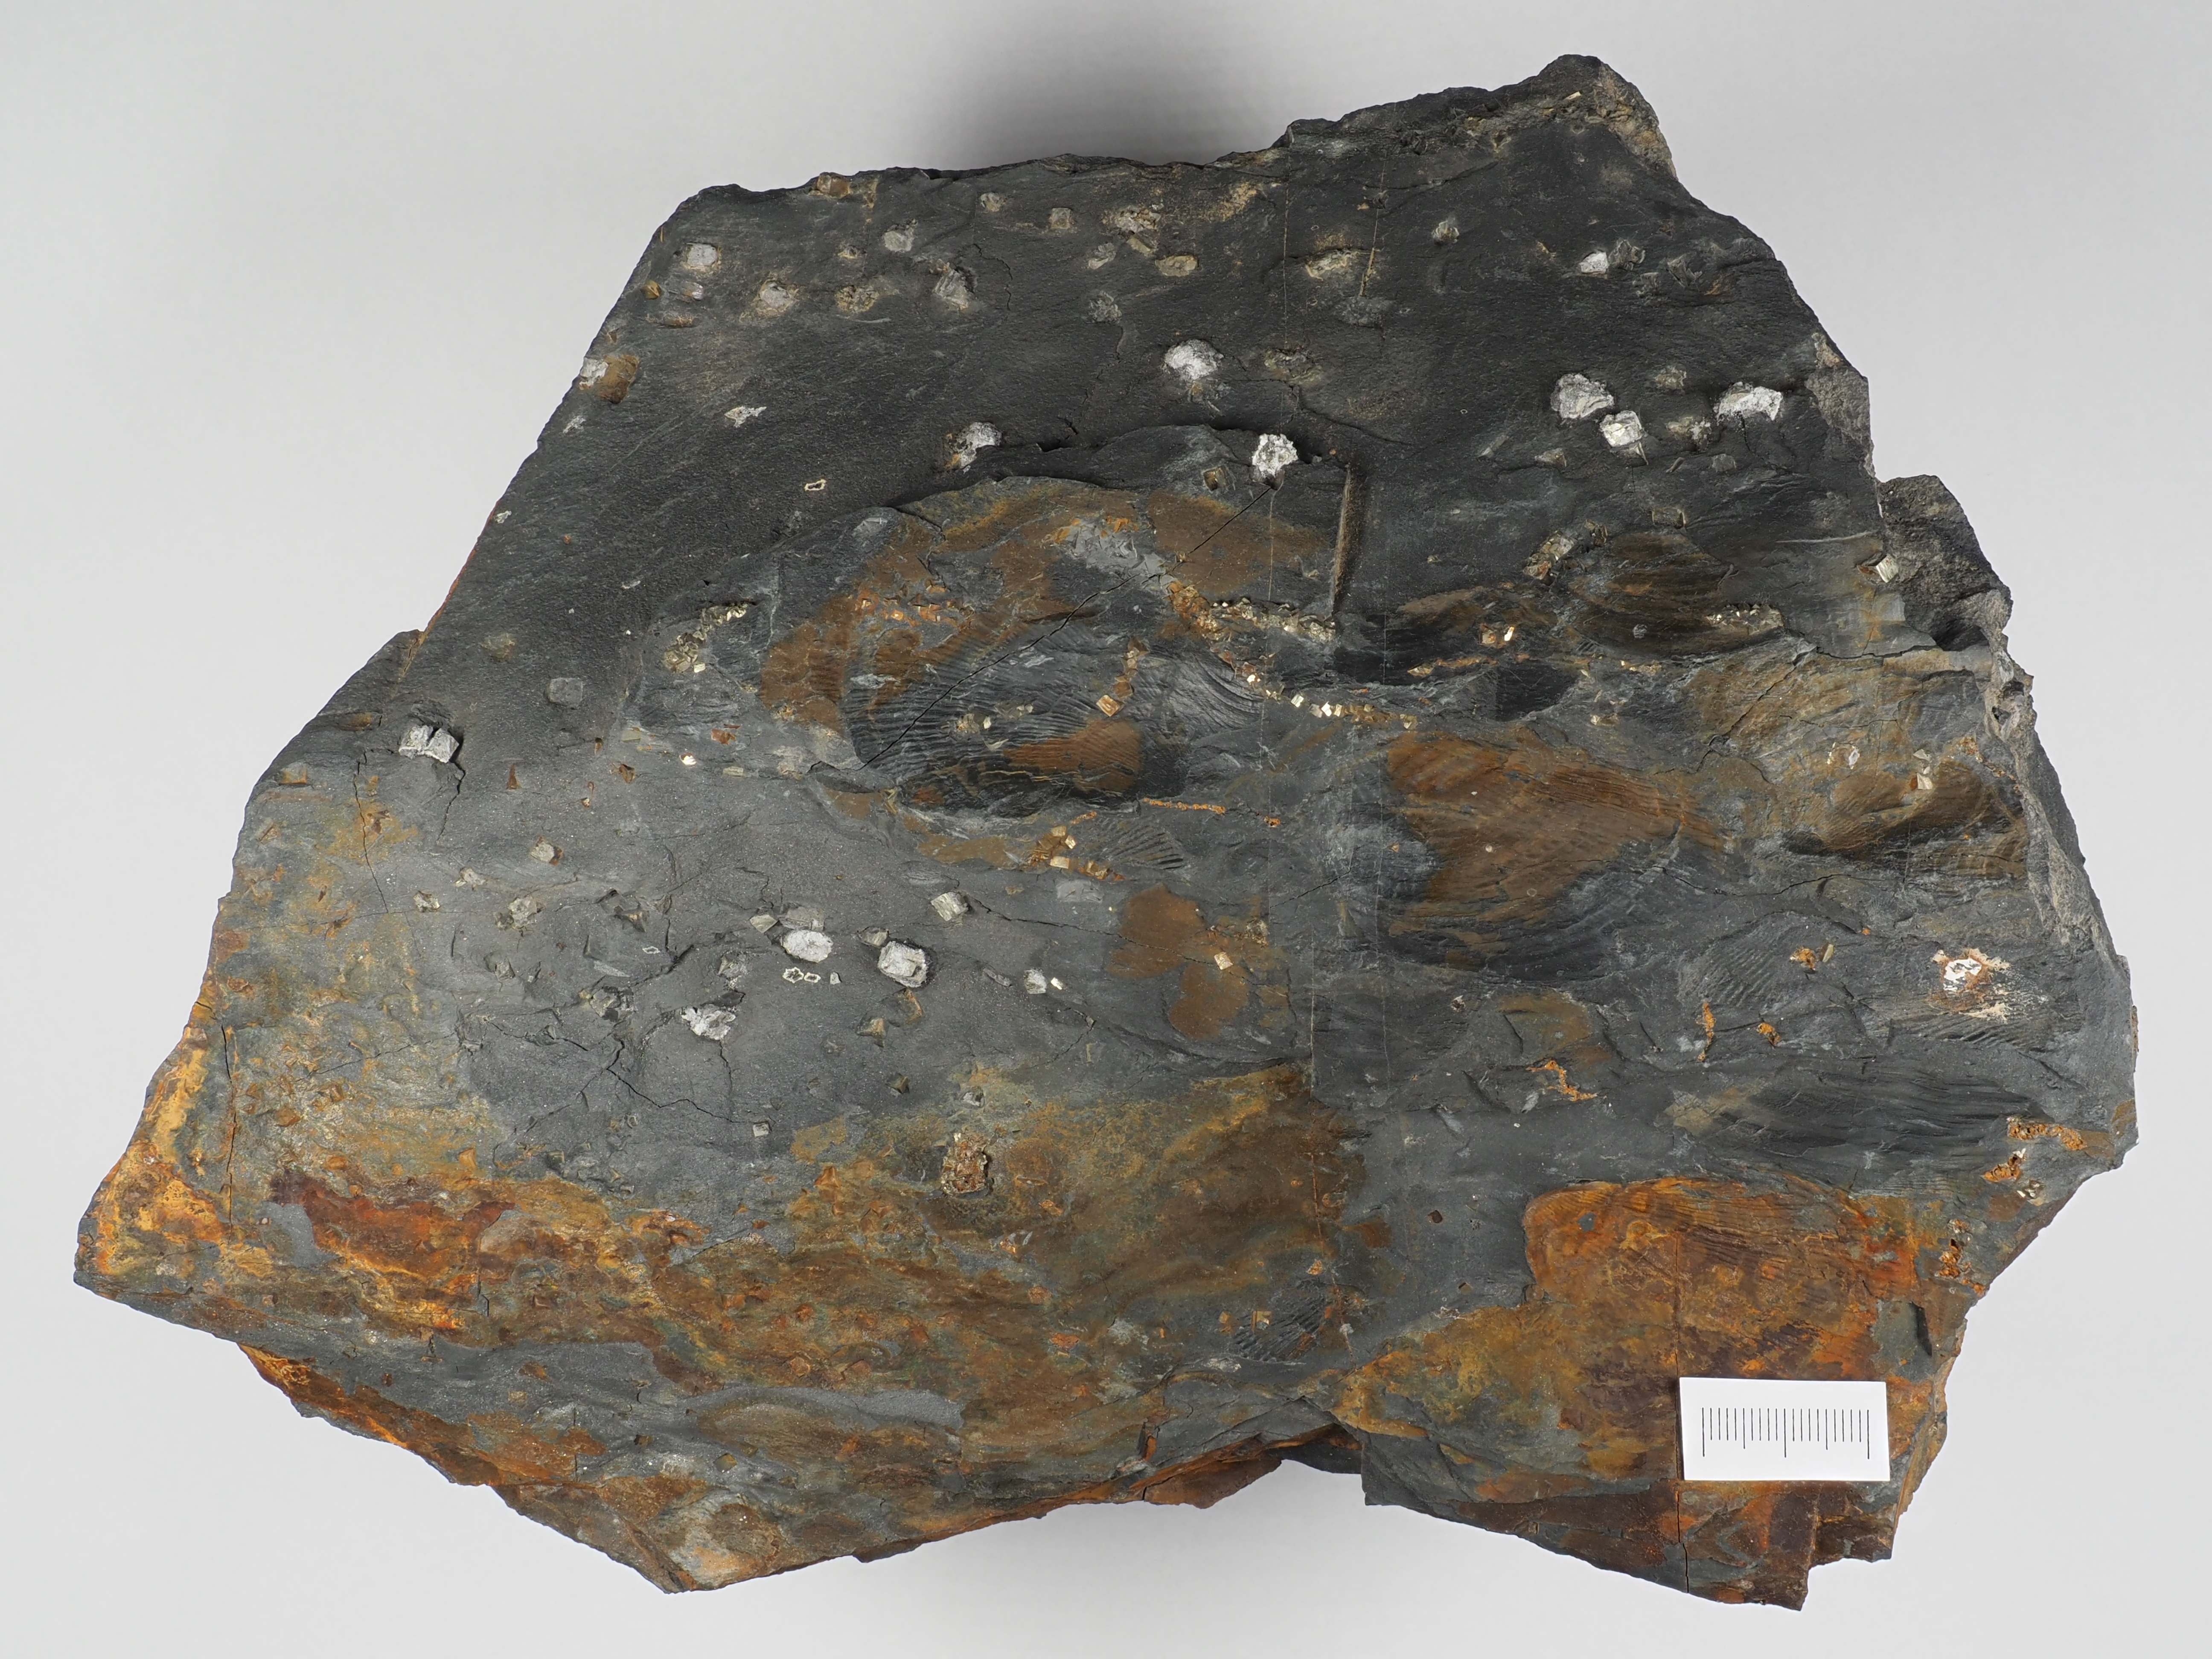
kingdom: Animalia
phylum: Mollusca
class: Bivalvia
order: Ostreida
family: Pterineidae
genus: Limoptera
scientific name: Limoptera
